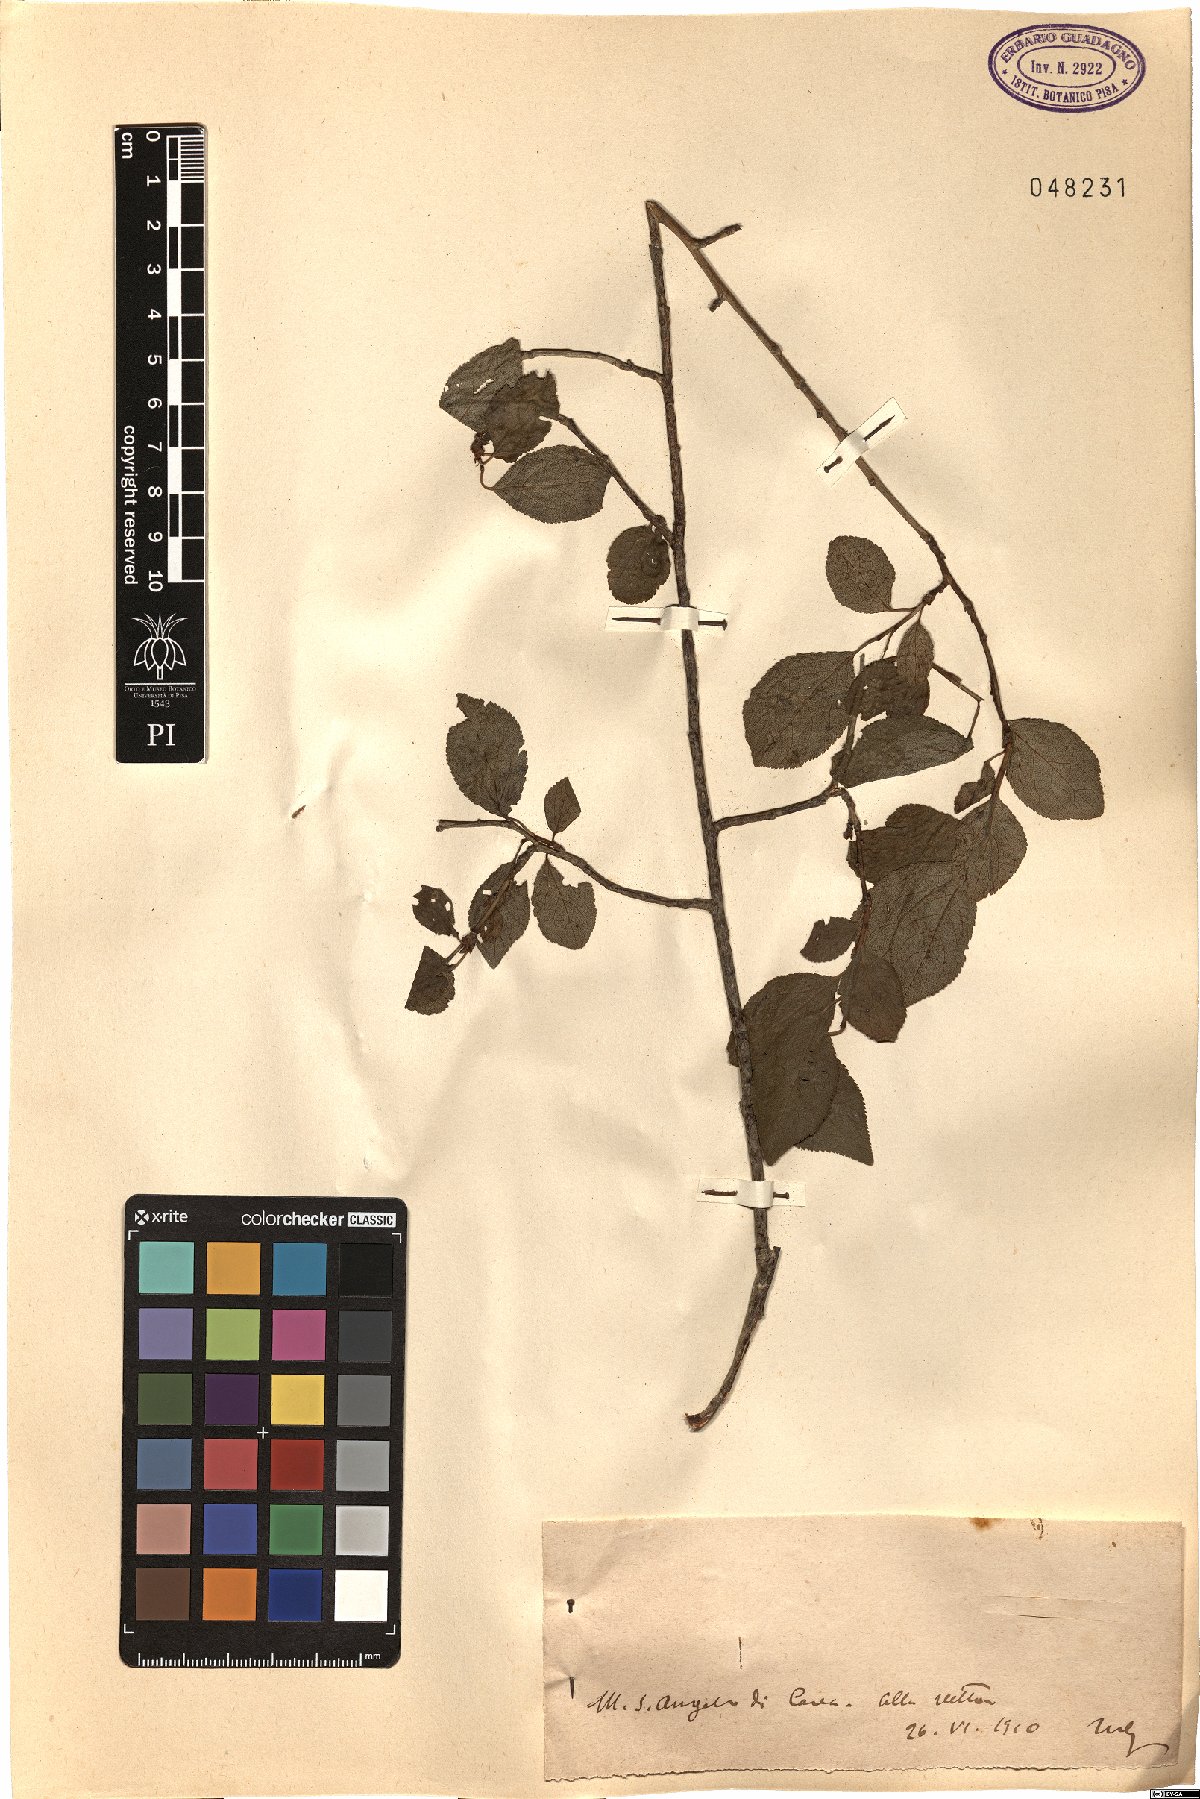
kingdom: Plantae
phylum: Tracheophyta
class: Magnoliopsida
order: Rosales
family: Rosaceae
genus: Prunus
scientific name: Prunus
